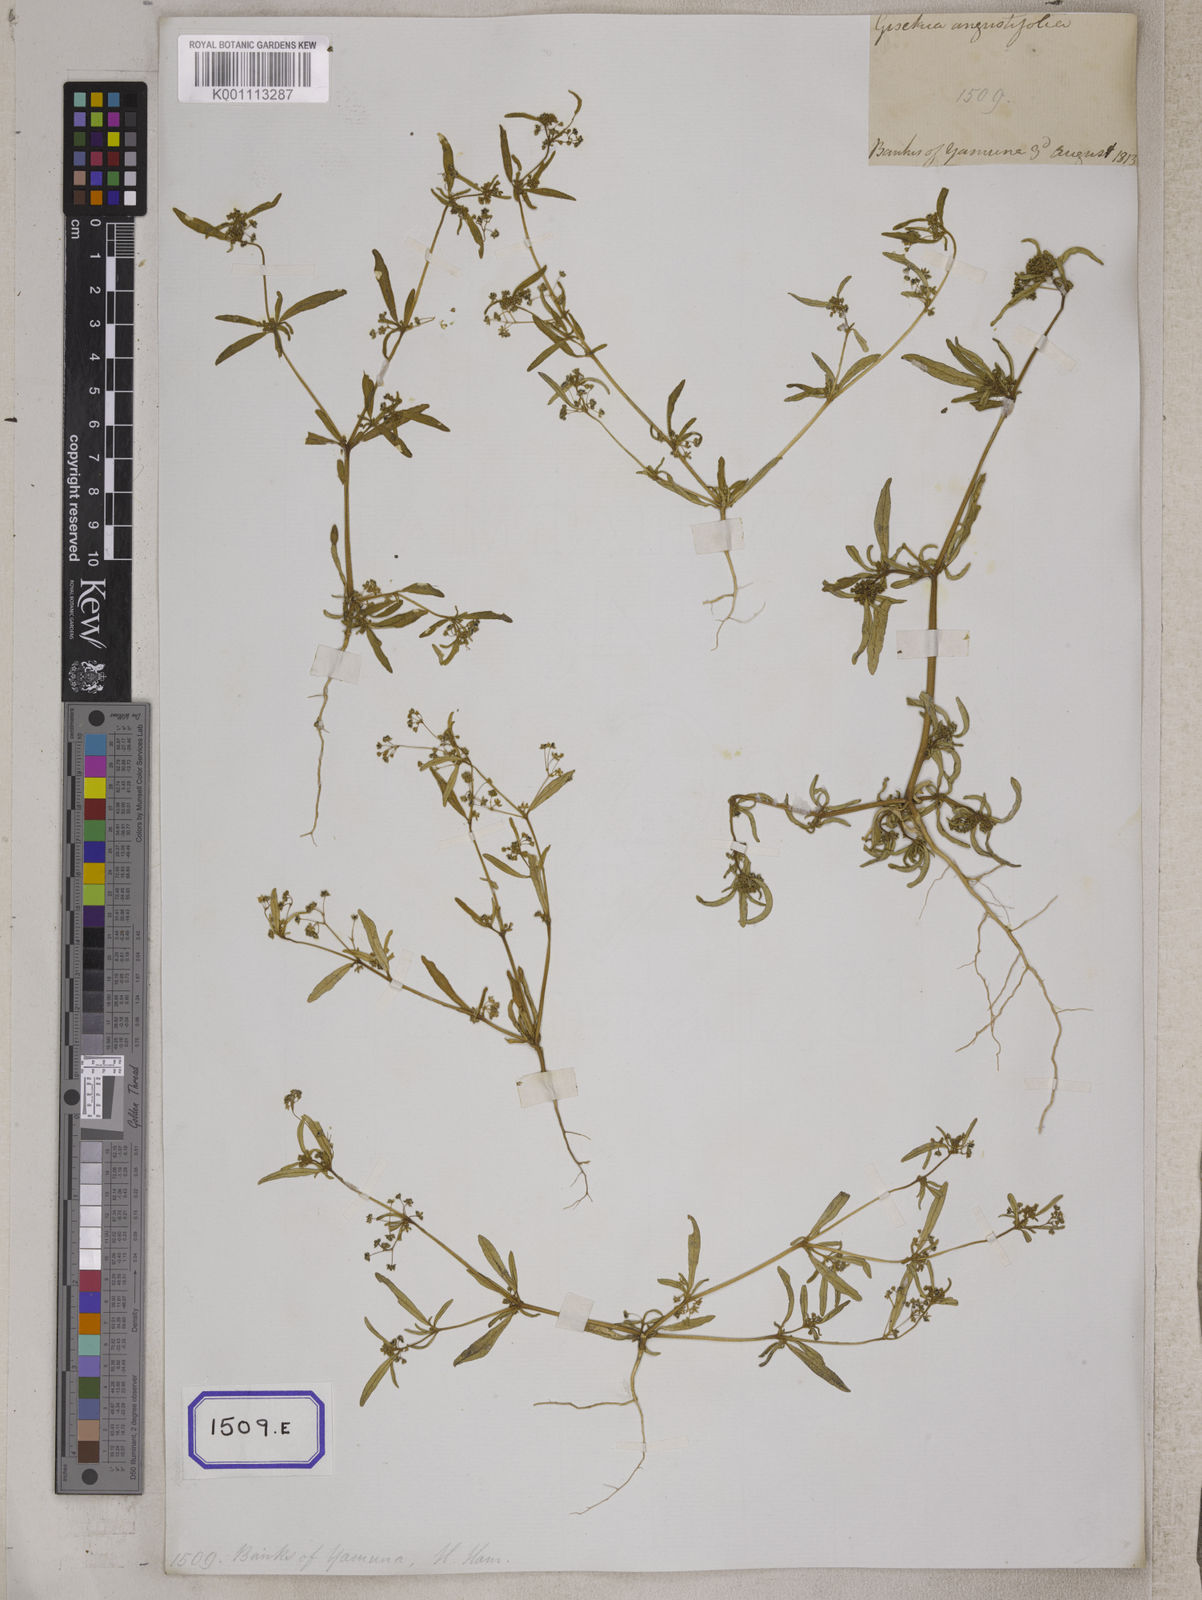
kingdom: Plantae
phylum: Tracheophyta
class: Magnoliopsida
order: Caryophyllales
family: Gisekiaceae
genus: Gisekia
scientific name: Gisekia
